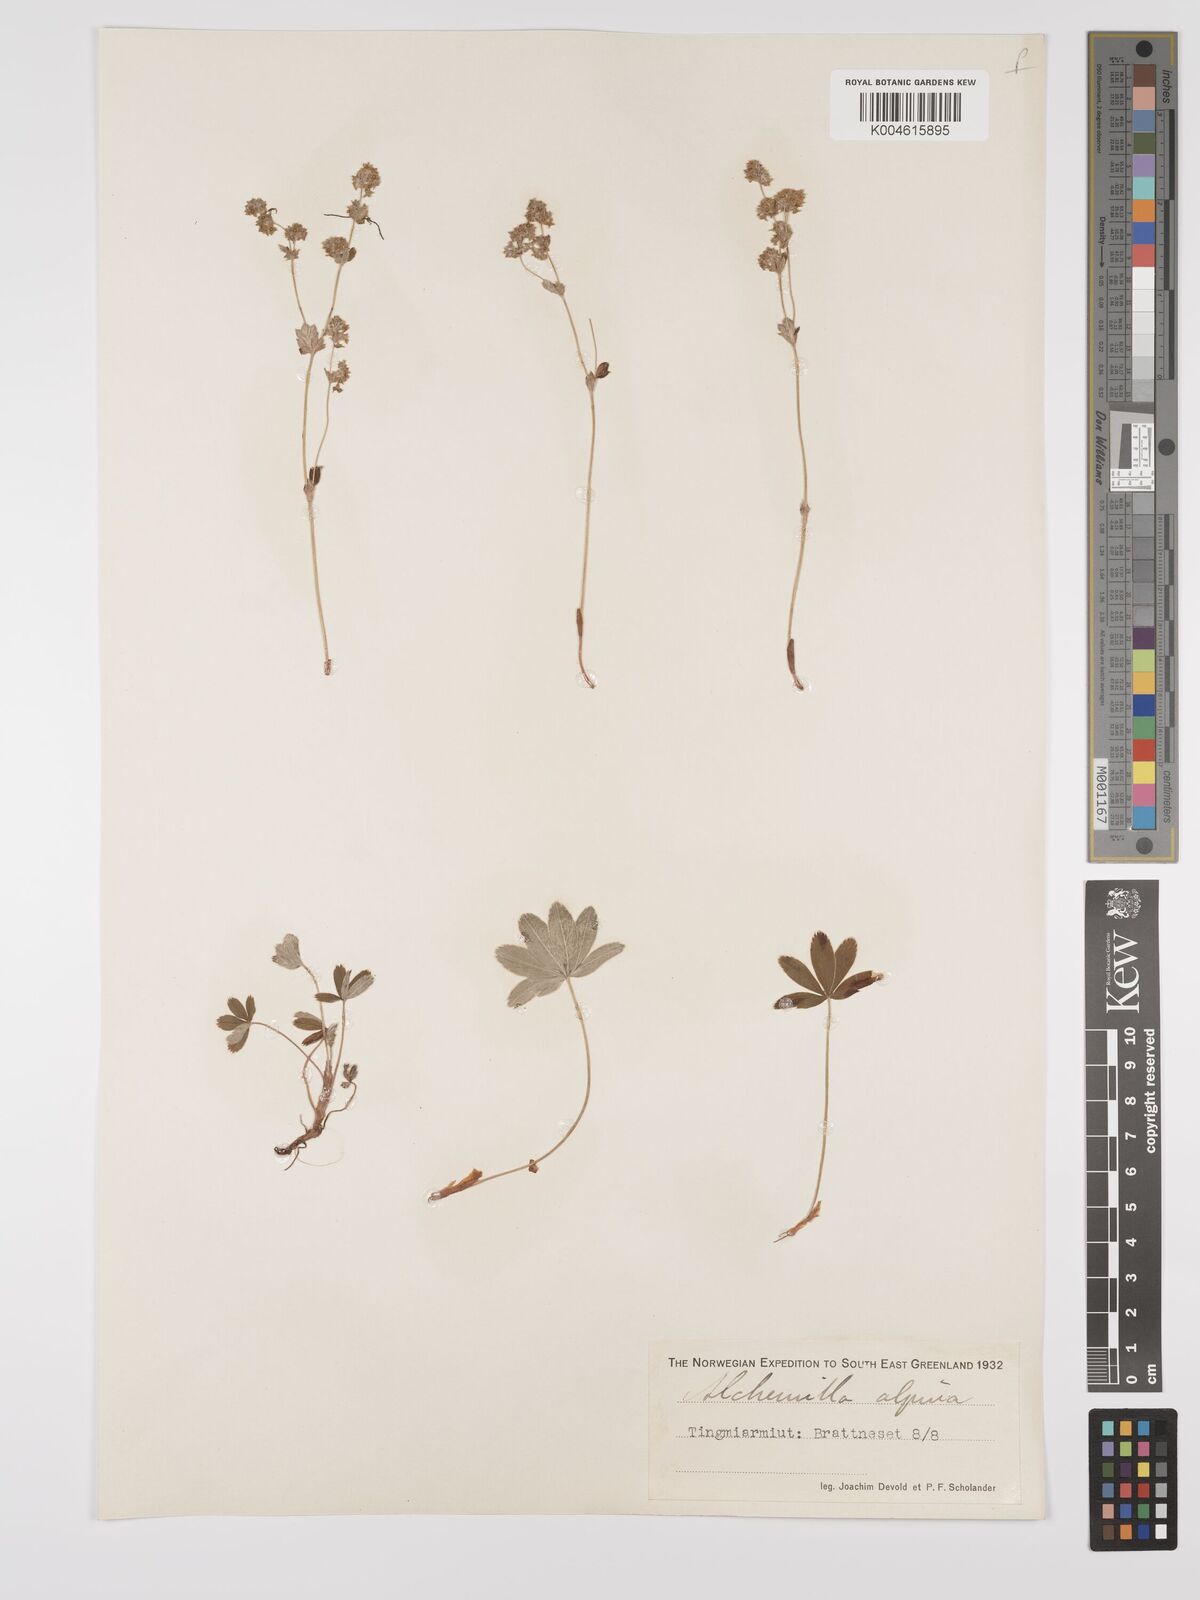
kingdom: Plantae
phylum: Tracheophyta
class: Magnoliopsida
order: Rosales
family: Rosaceae
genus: Alchemilla
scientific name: Alchemilla alpina
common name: Alpine lady's-mantle
